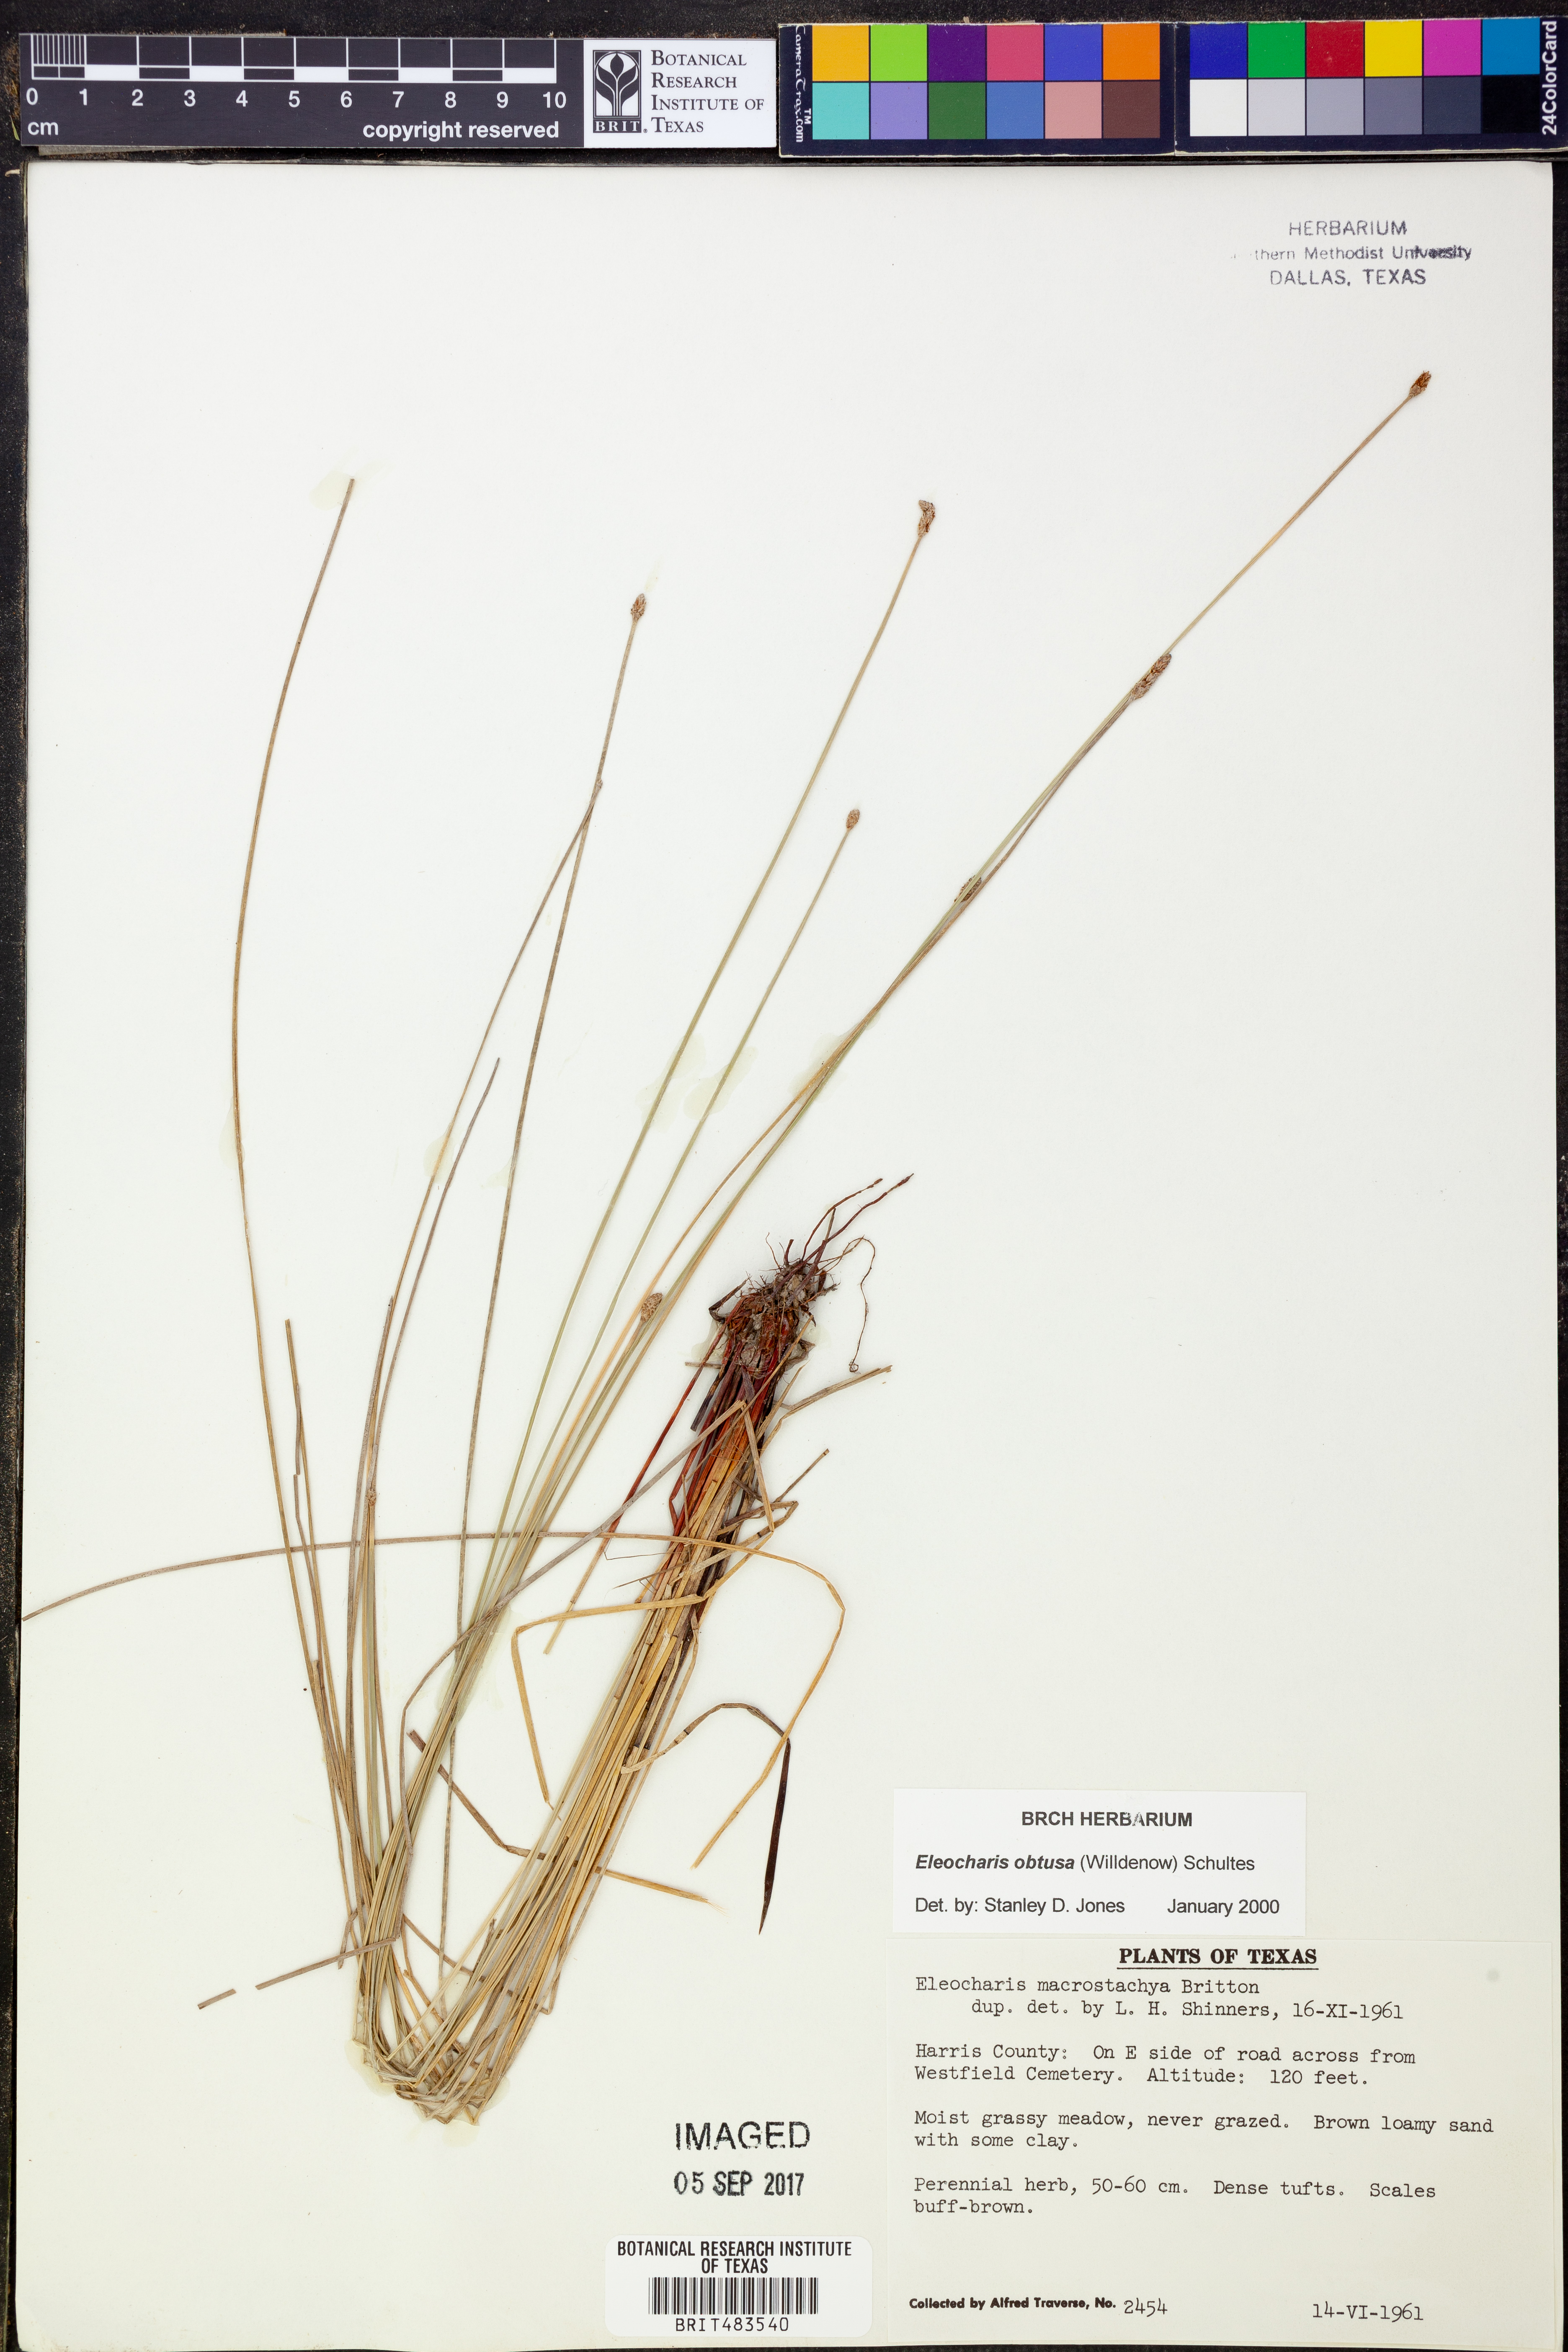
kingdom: Plantae
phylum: Tracheophyta
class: Liliopsida
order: Poales
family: Cyperaceae
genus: Eleocharis
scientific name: Eleocharis obtusa
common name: Blunt spikerush
